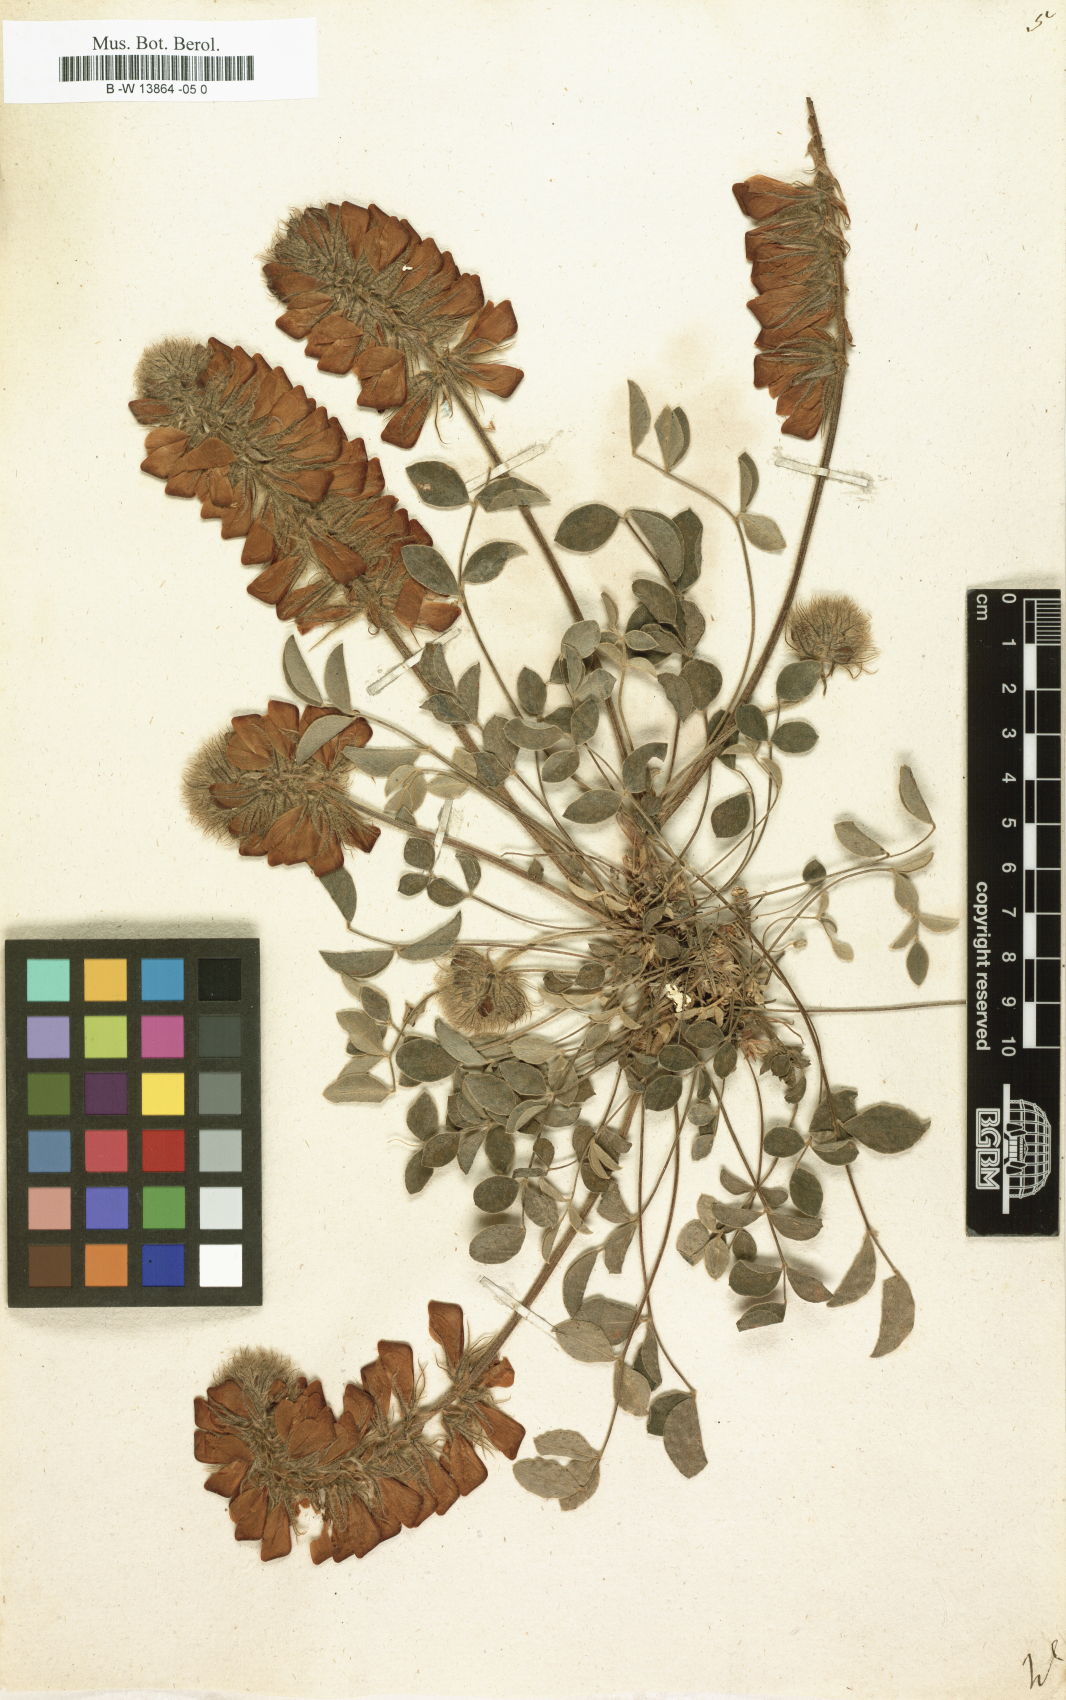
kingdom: Plantae
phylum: Tracheophyta
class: Magnoliopsida
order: Fabales
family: Fabaceae
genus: Hedysarum
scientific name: Hedysarum
